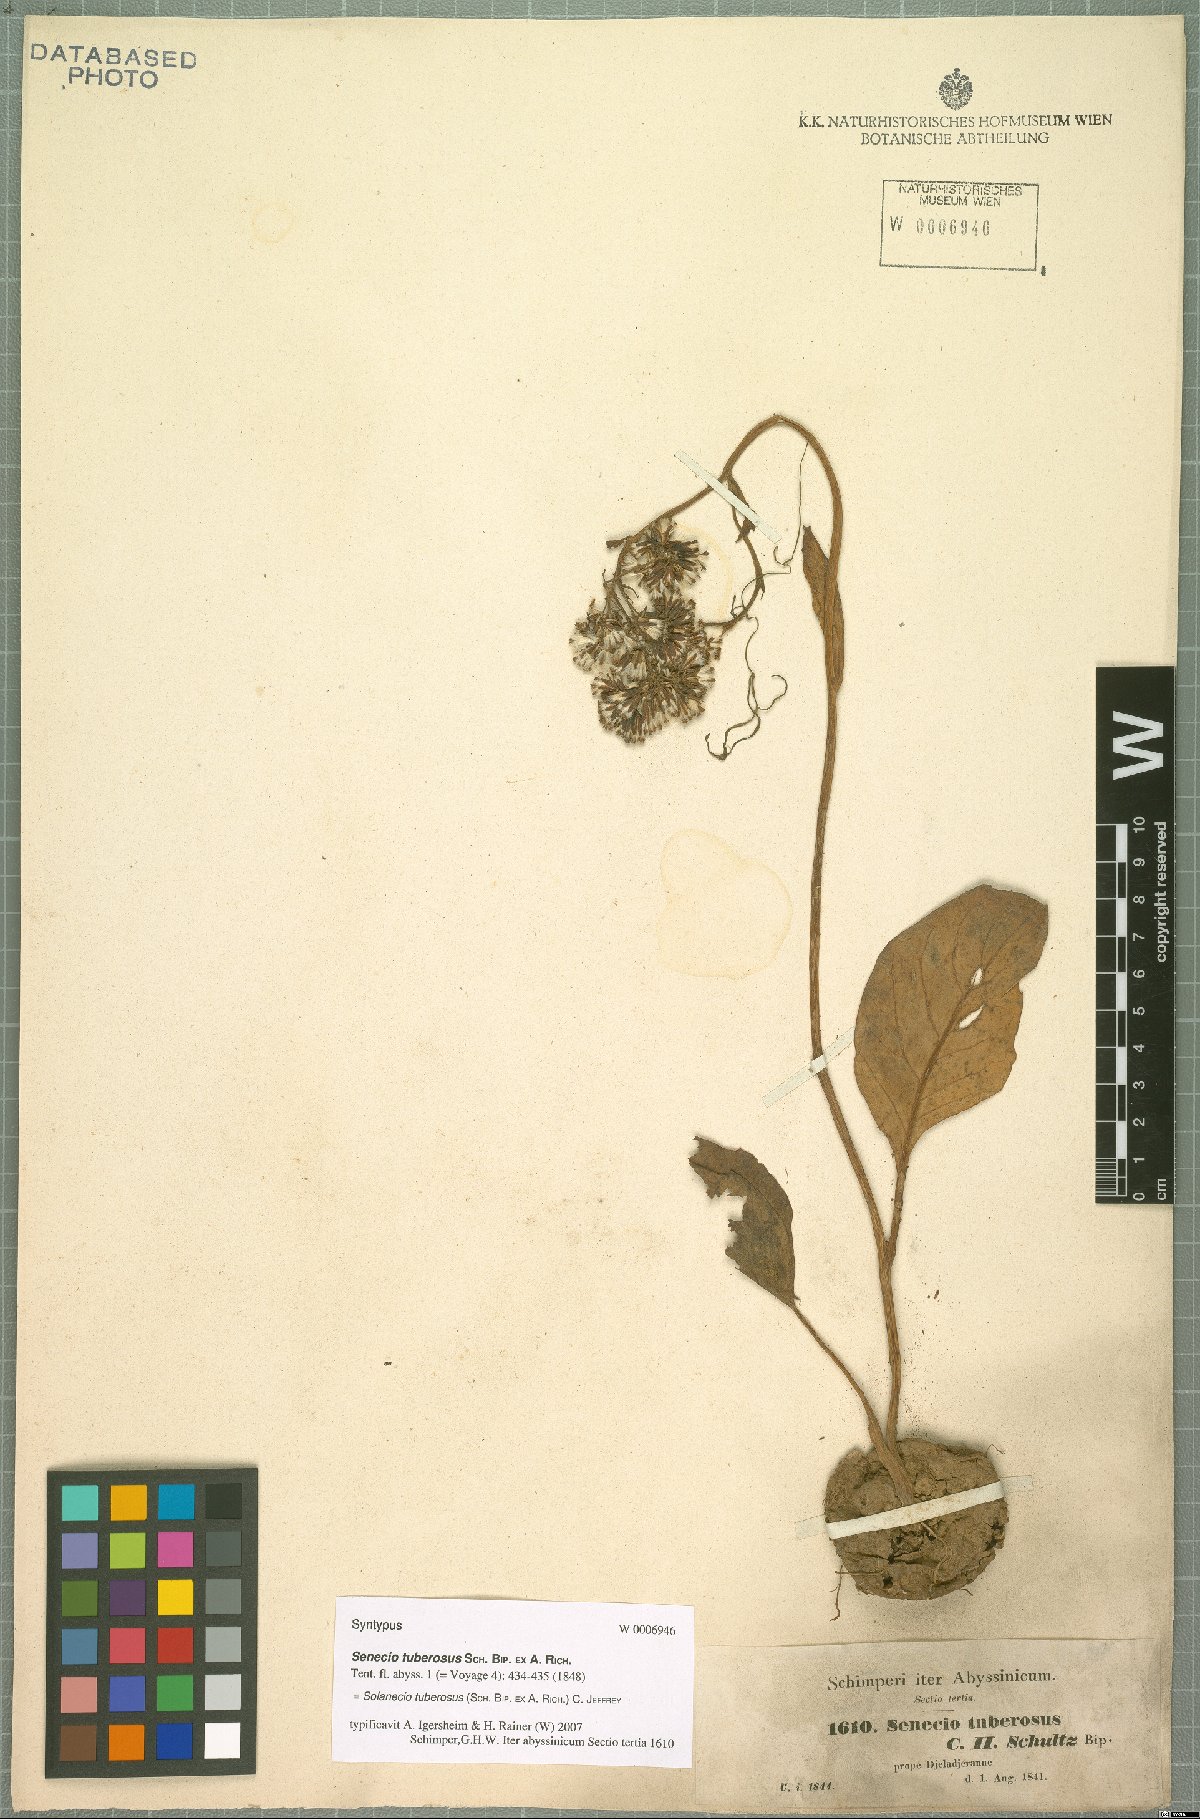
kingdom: Plantae
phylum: Tracheophyta
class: Magnoliopsida
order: Asterales
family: Asteraceae
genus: Solanecio
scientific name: Solanecio tuberosus
